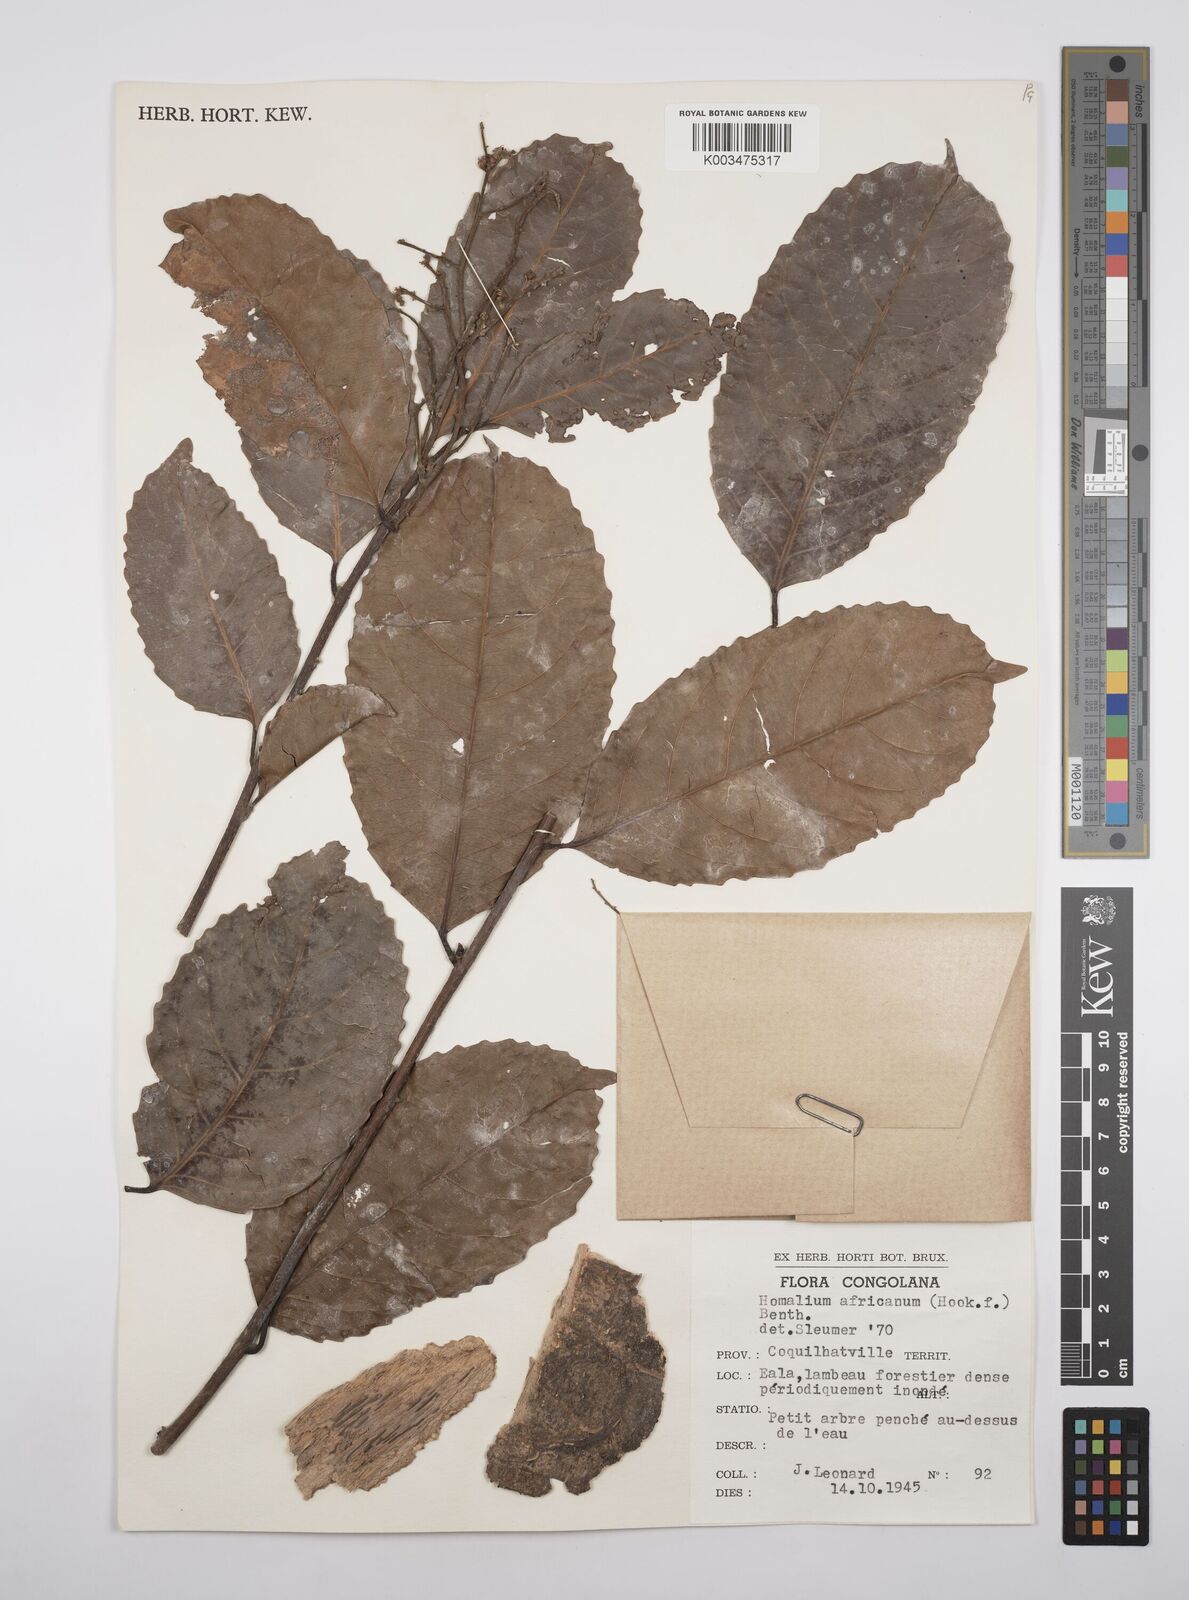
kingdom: Plantae
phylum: Tracheophyta
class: Magnoliopsida
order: Malpighiales
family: Salicaceae
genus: Homalium
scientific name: Homalium africanum
